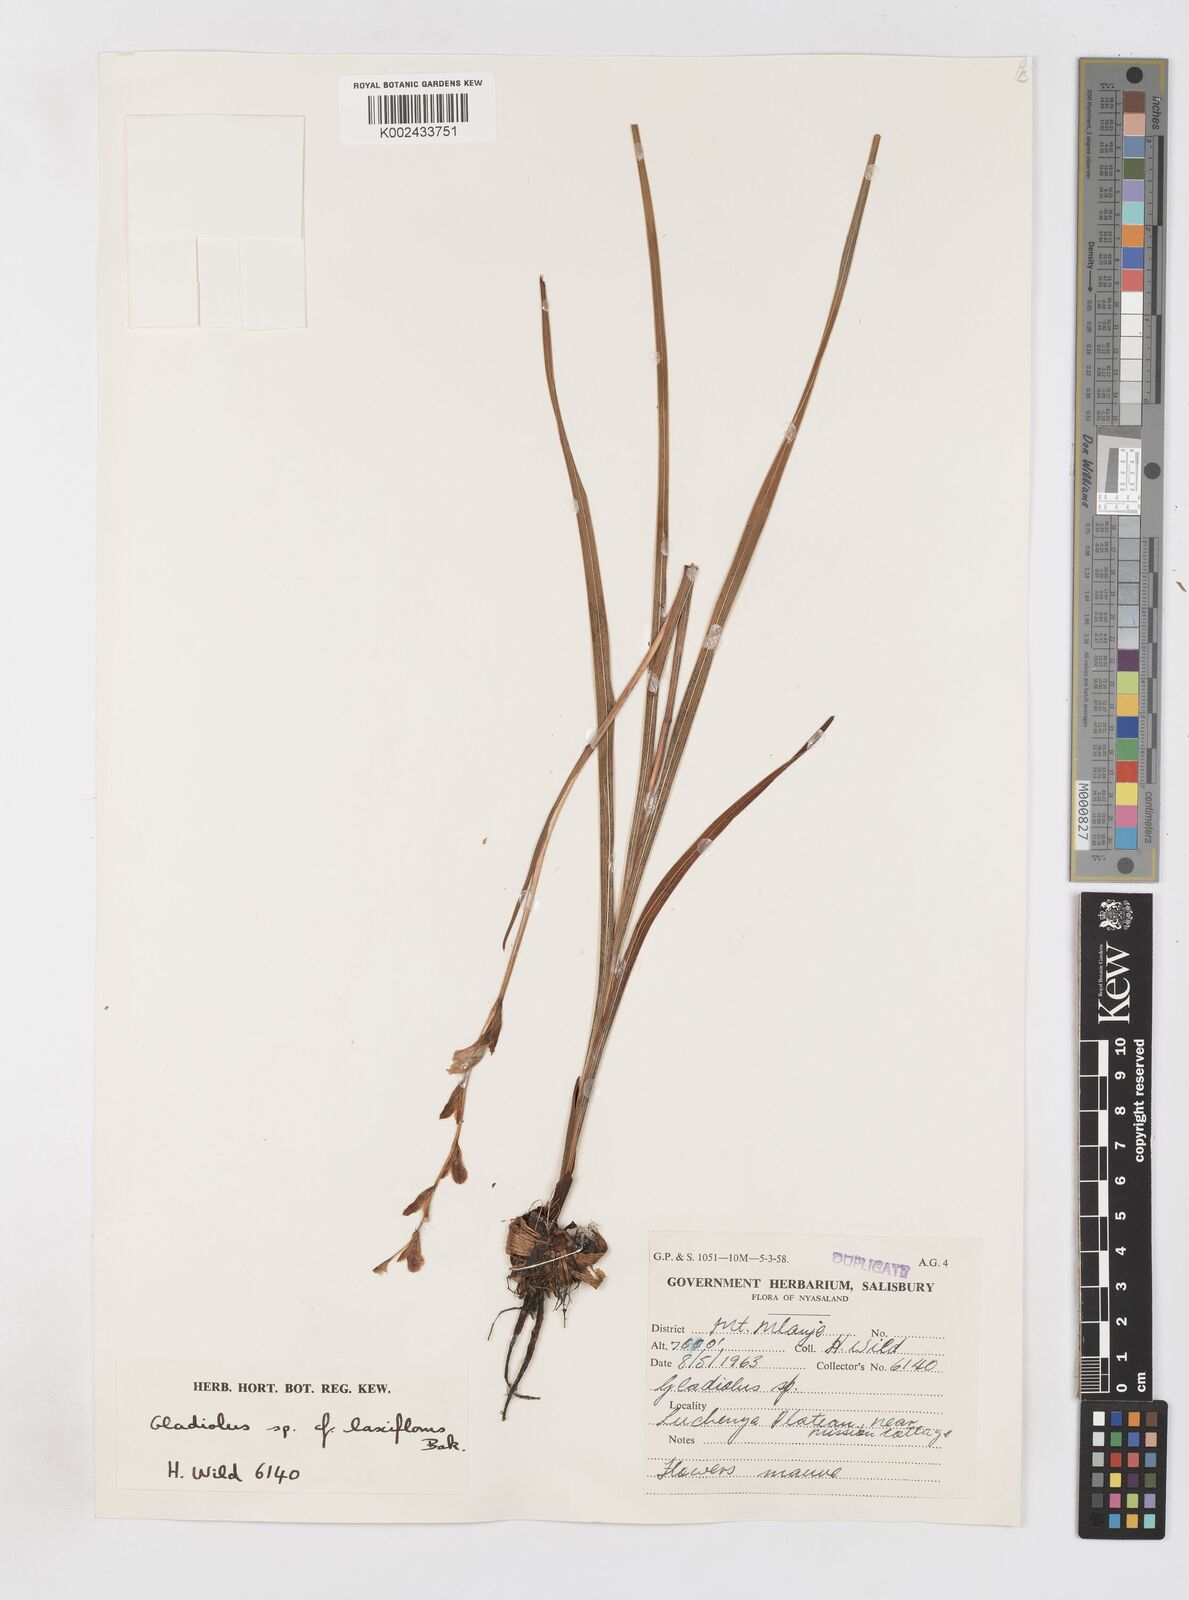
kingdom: Plantae
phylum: Tracheophyta
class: Liliopsida
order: Asparagales
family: Iridaceae
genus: Gladiolus
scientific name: Gladiolus crassifolius
